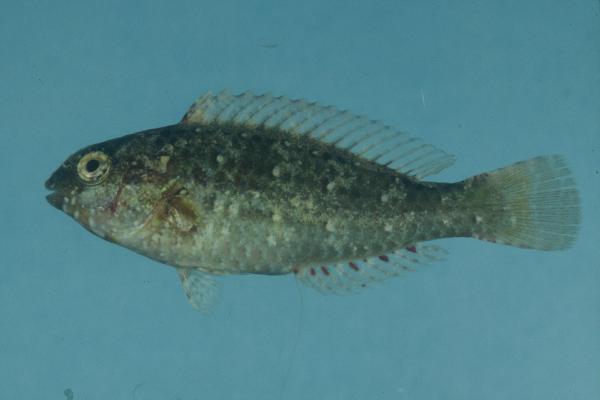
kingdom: Animalia
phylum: Chordata
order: Perciformes
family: Scaridae
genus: Calotomus
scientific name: Calotomus spinidens
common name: Raggedtooth parrotfish
